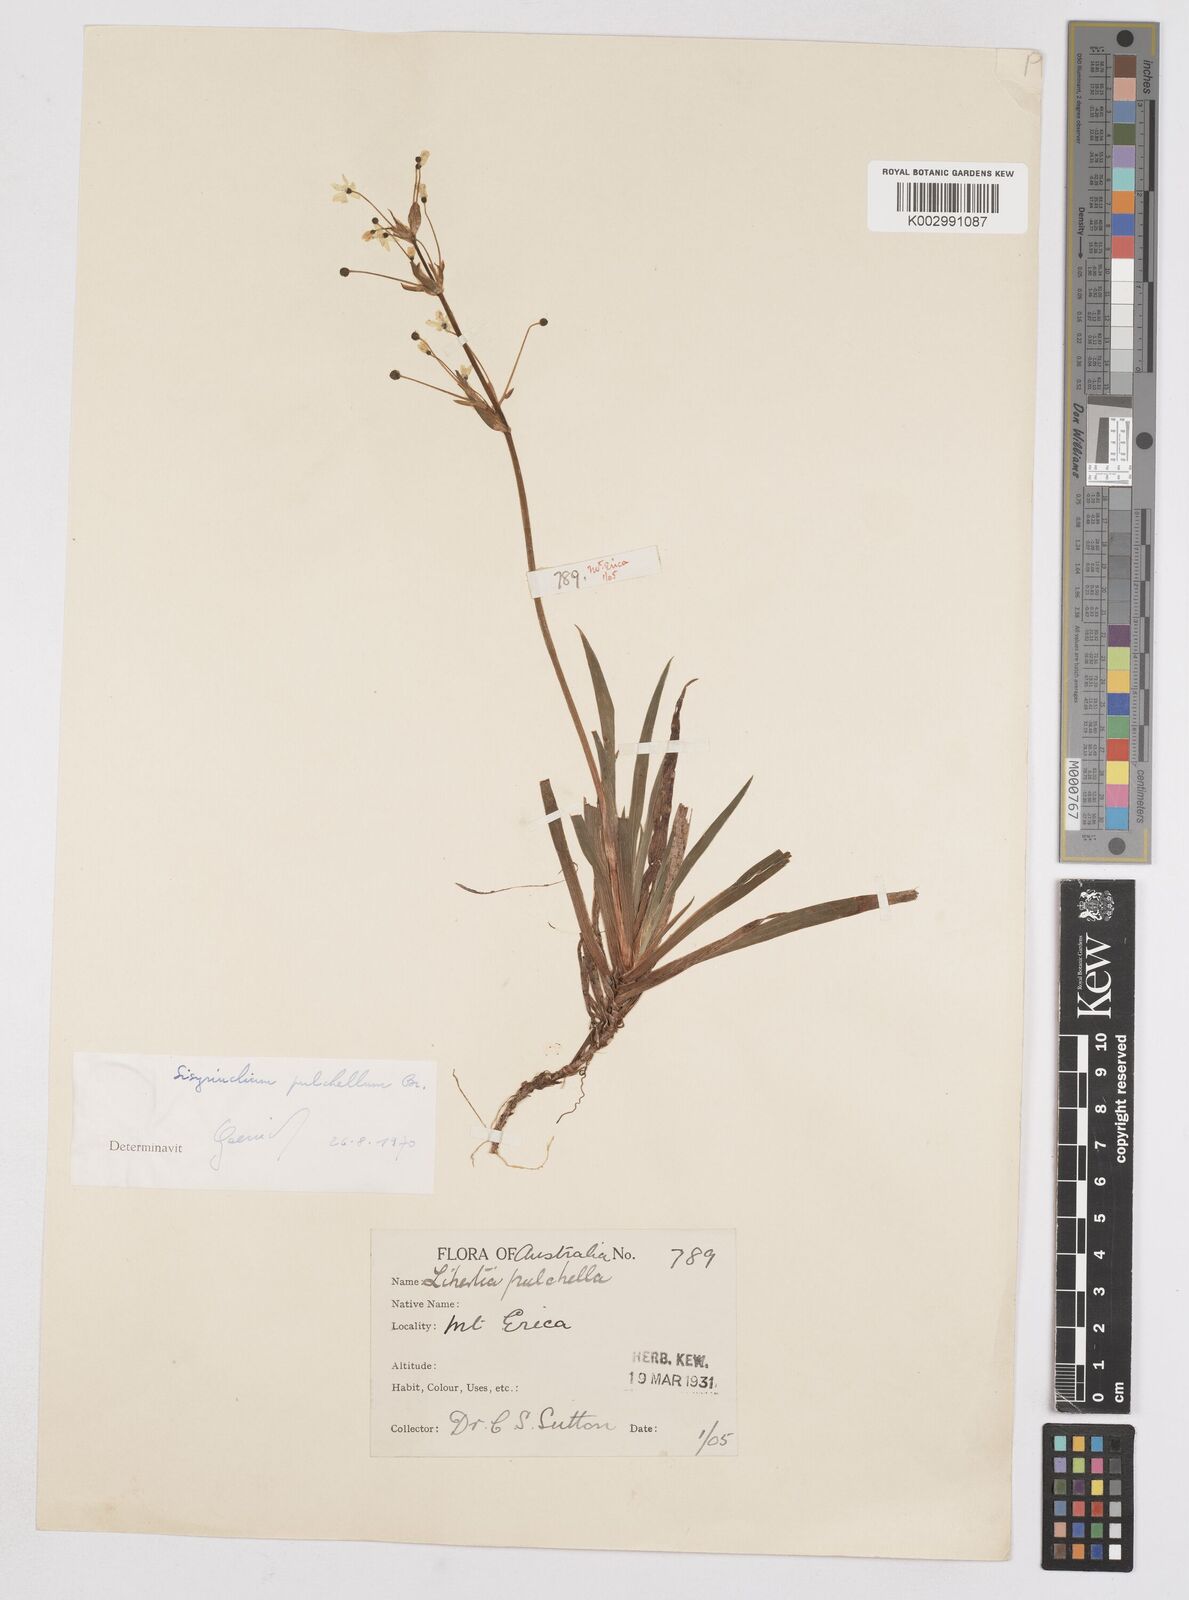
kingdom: Plantae
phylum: Tracheophyta
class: Liliopsida
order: Asparagales
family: Iridaceae
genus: Libertia
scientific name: Libertia pulchella
